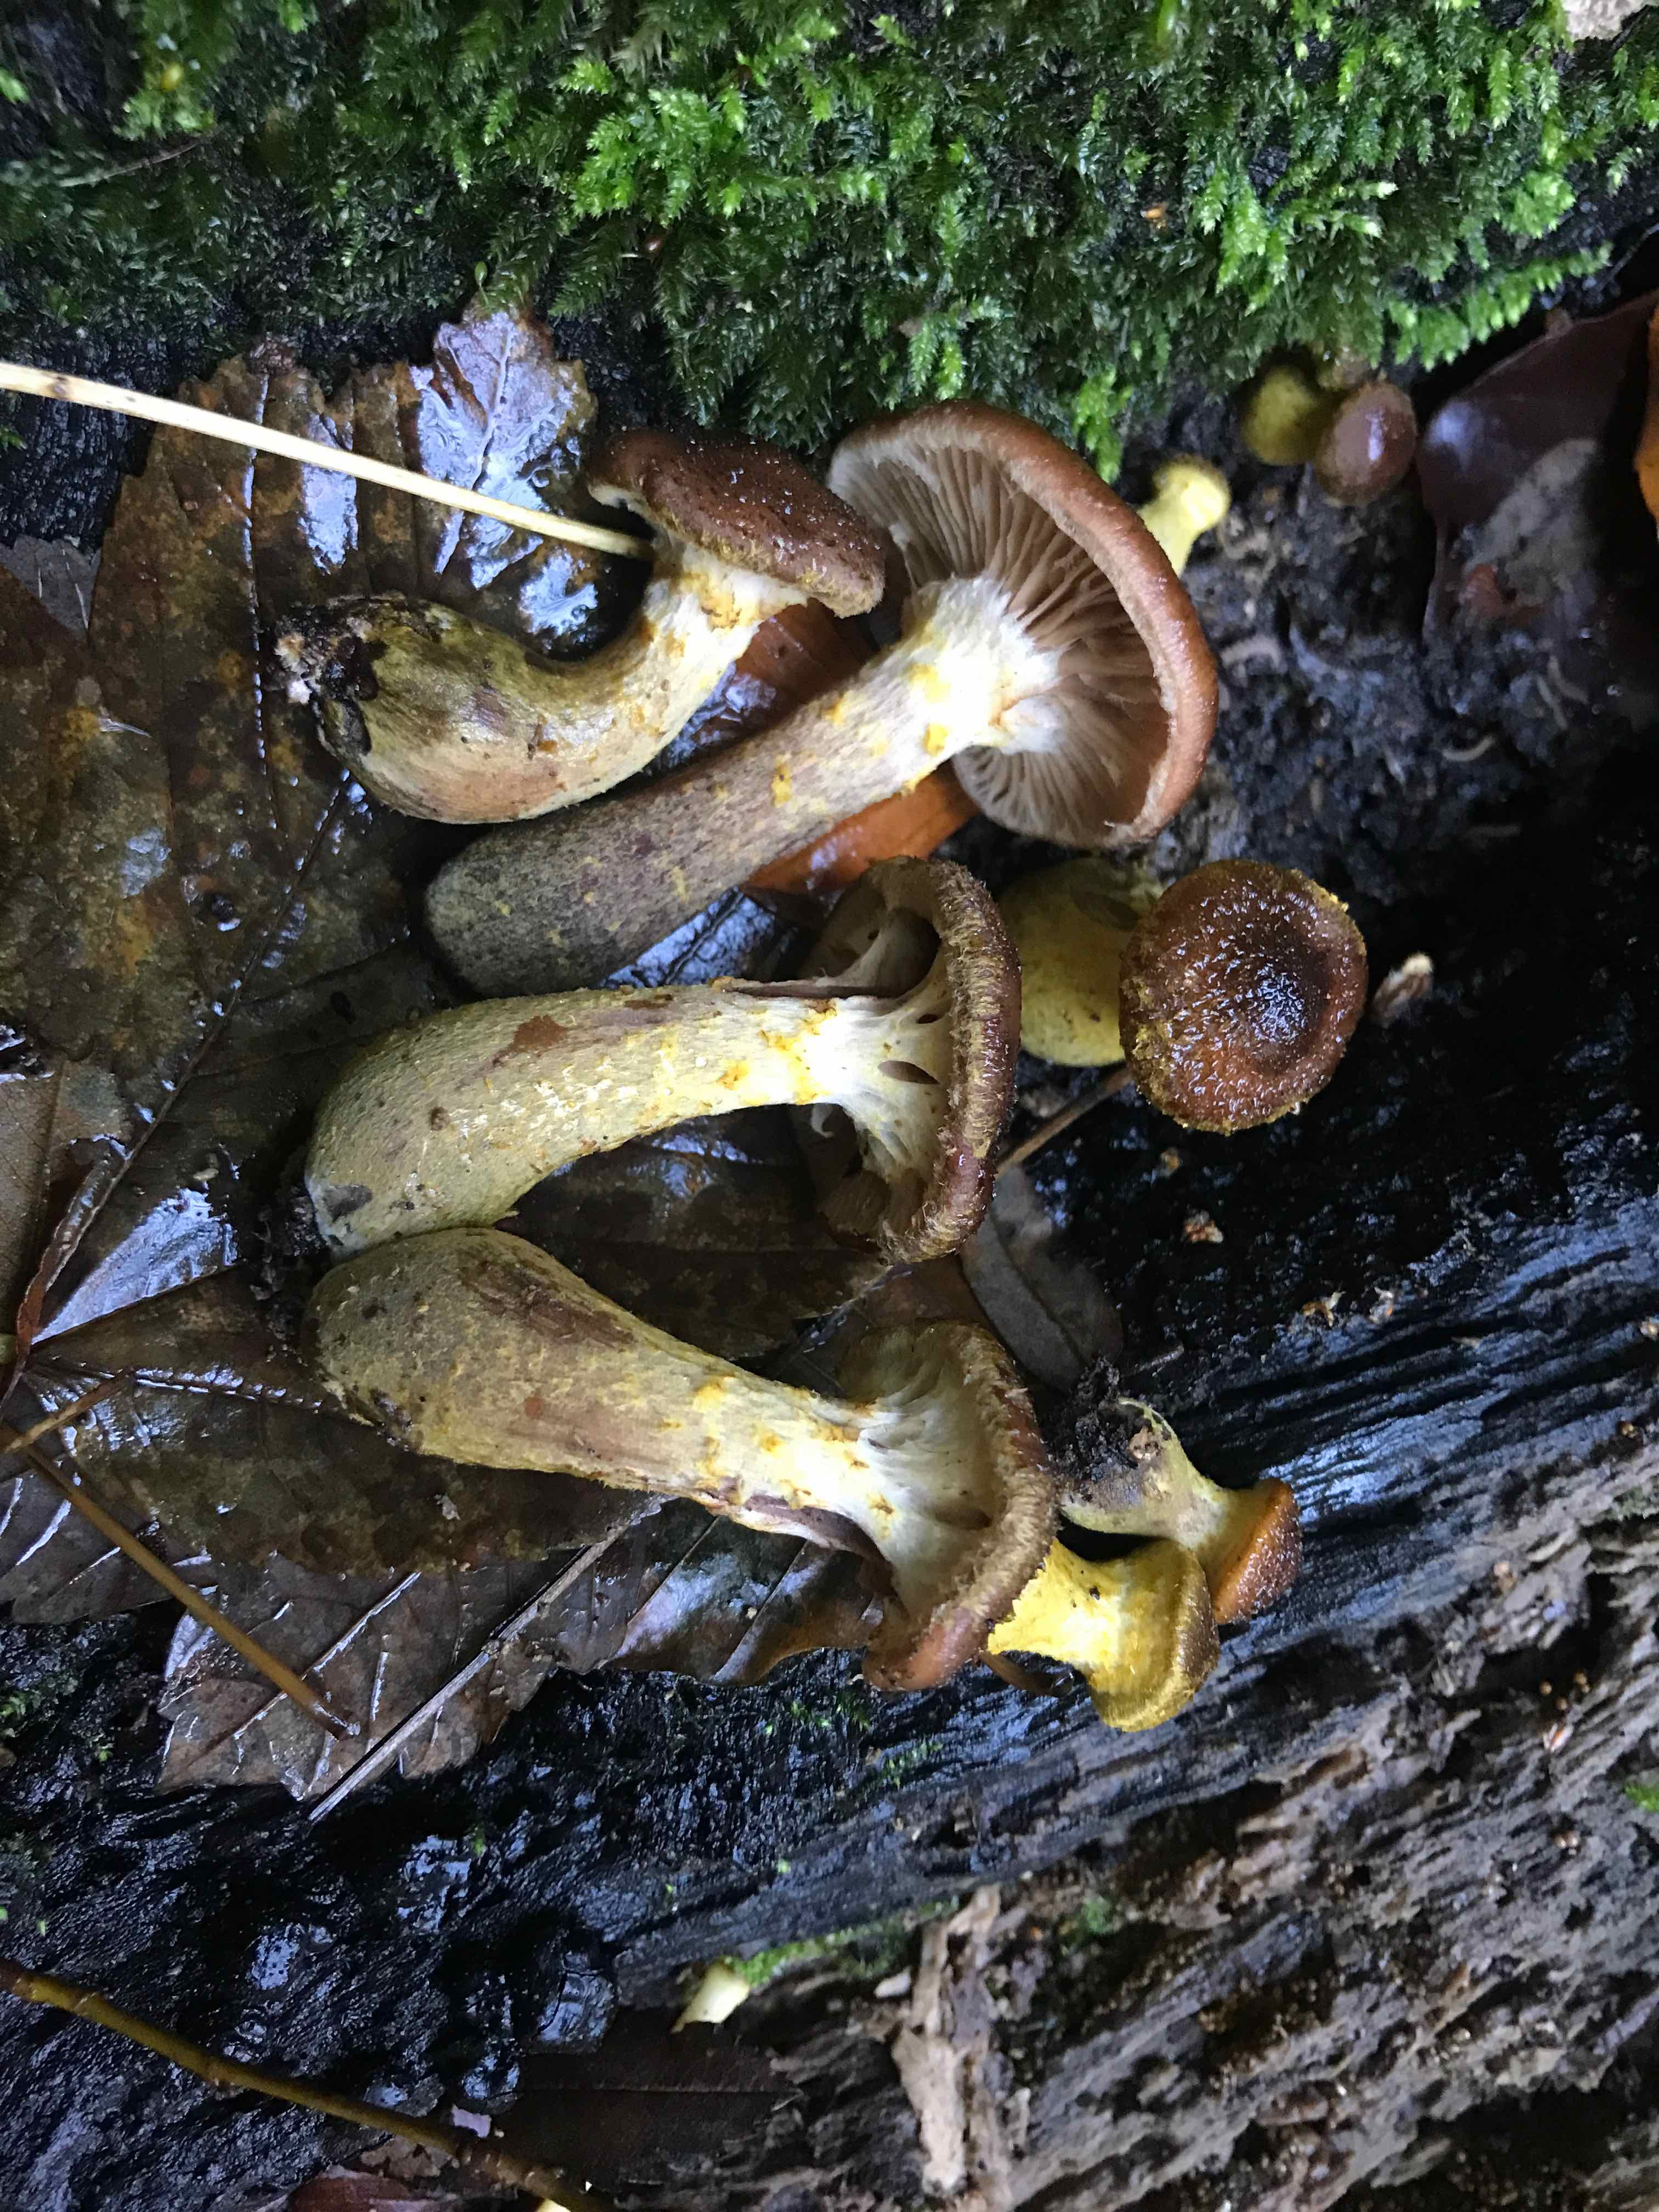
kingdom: Fungi
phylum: Basidiomycota
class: Agaricomycetes
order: Agaricales
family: Physalacriaceae
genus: Armillaria
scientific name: Armillaria lutea
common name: køllestokket honningsvamp
